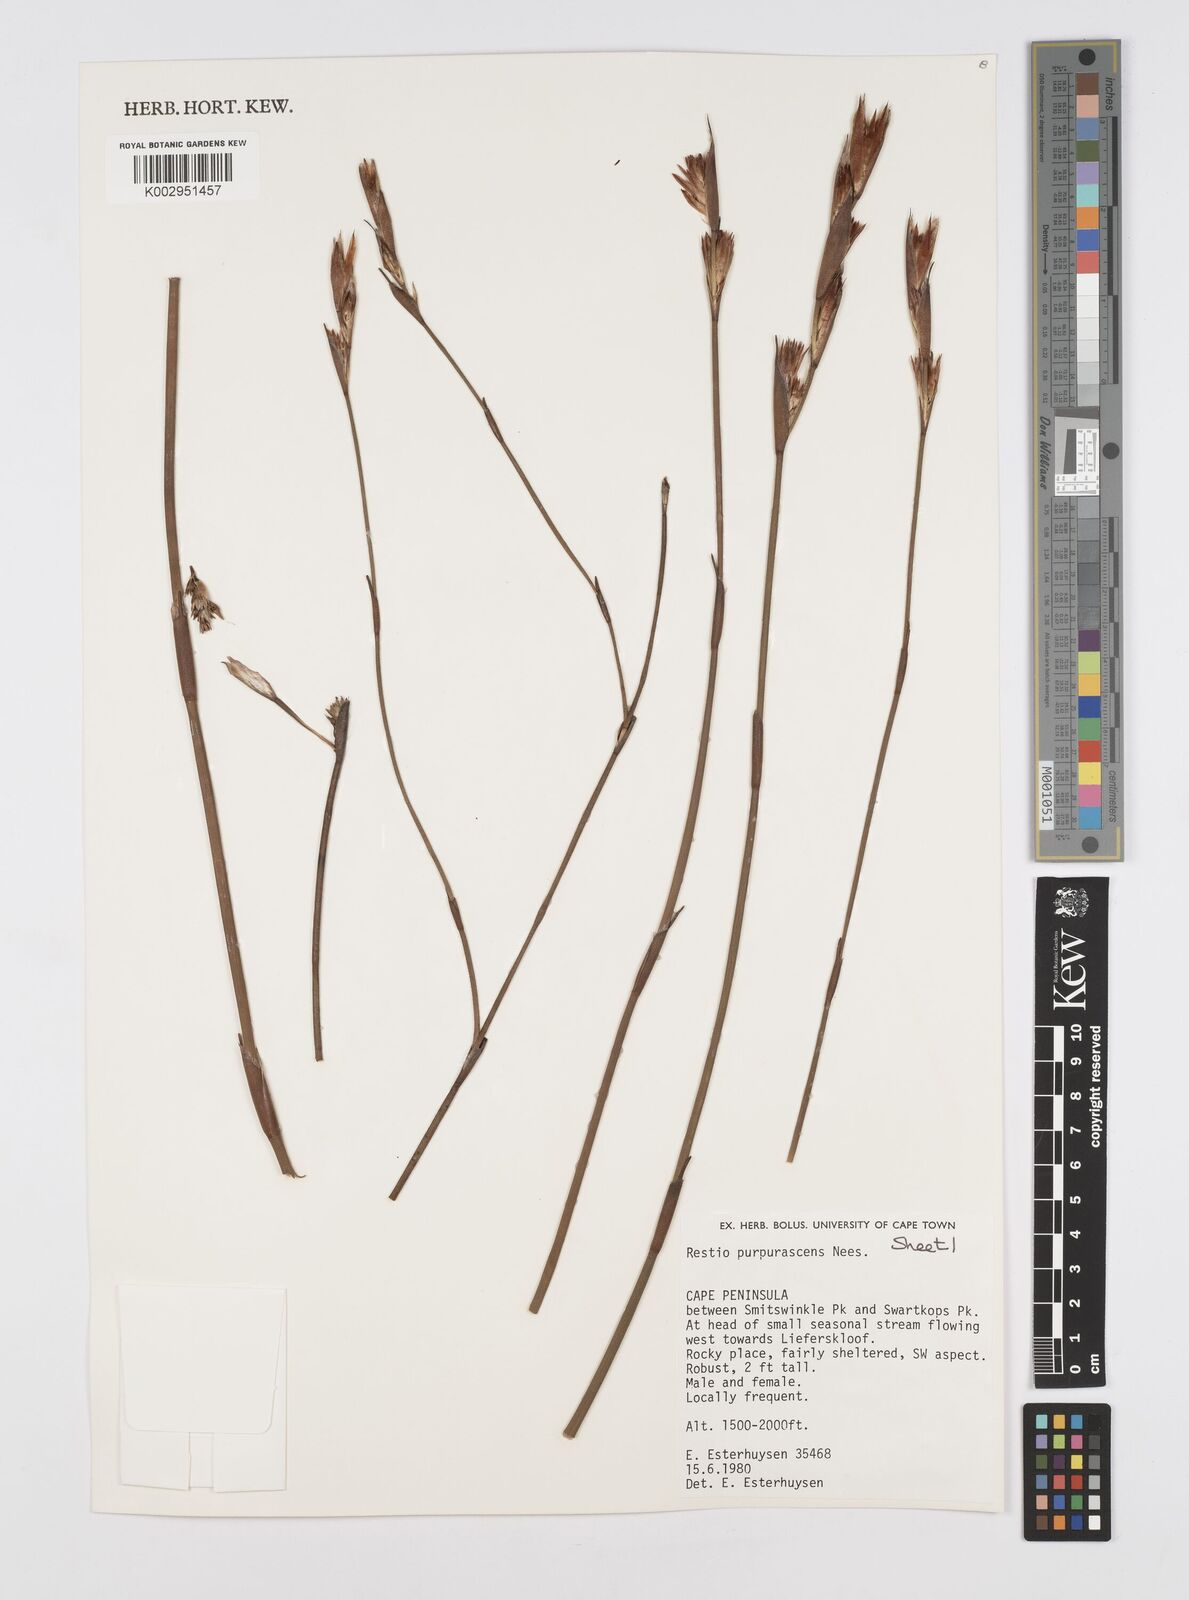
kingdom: Plantae
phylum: Tracheophyta
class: Liliopsida
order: Poales
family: Restionaceae
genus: Restio
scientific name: Restio purpurascens
